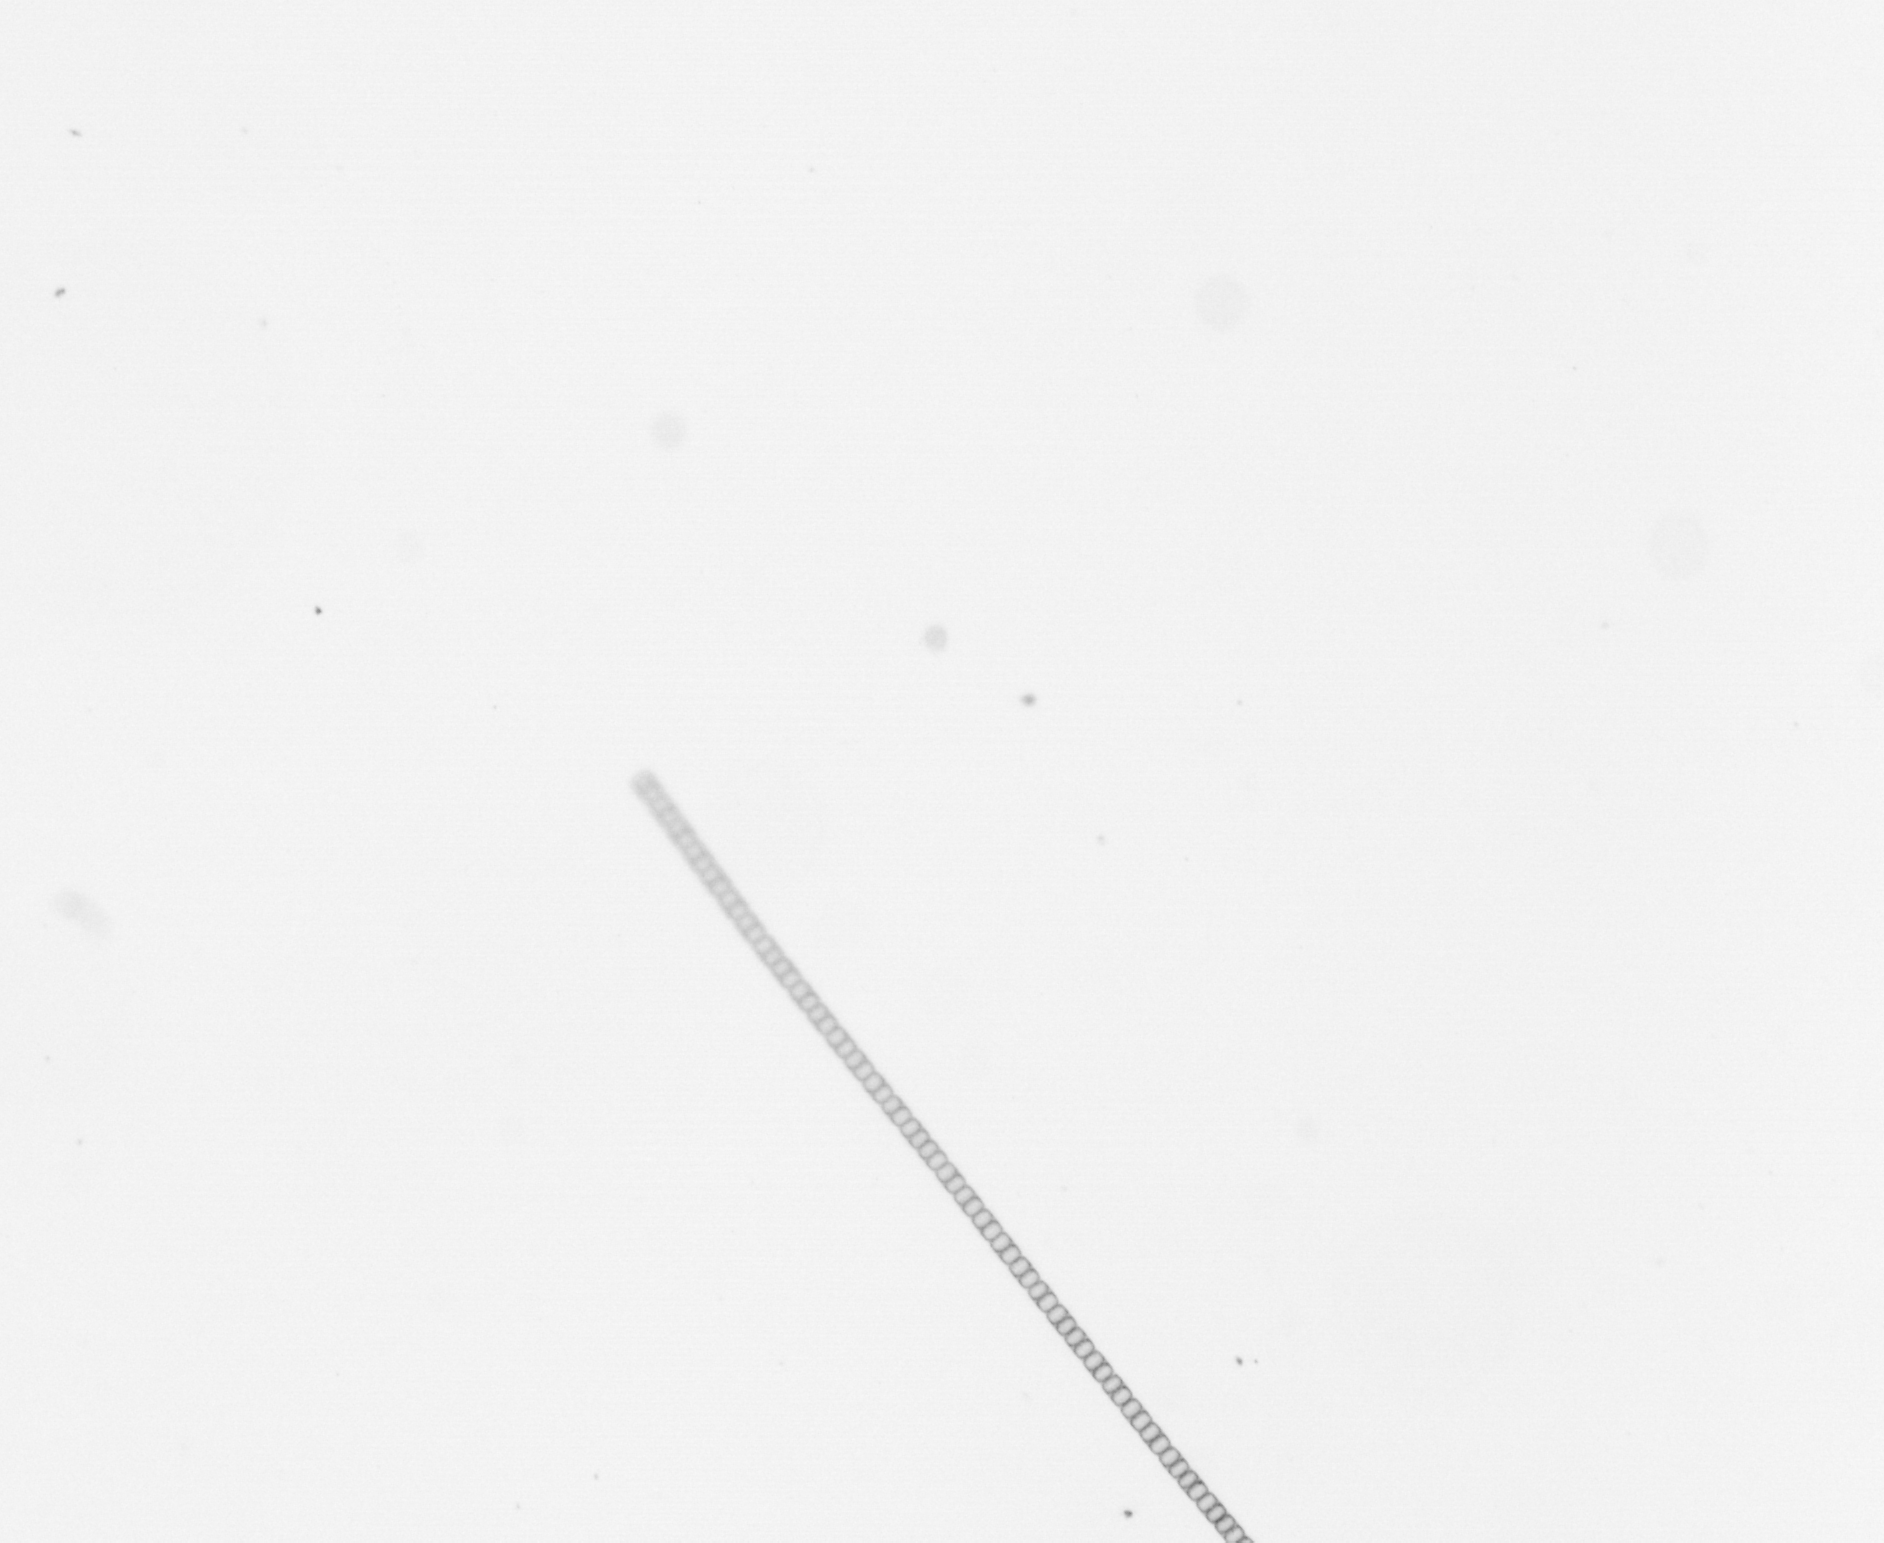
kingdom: Chromista
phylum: Ochrophyta
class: Bacillariophyceae
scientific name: Bacillariophyceae
